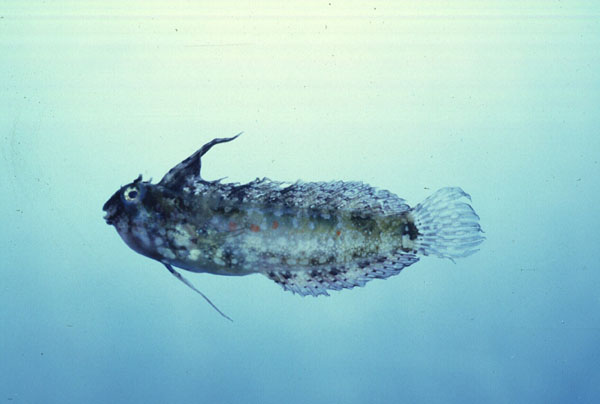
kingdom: Animalia
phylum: Chordata
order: Perciformes
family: Blenniidae
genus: Petroscirtes
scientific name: Petroscirtes mitratus
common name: Floral blenny
